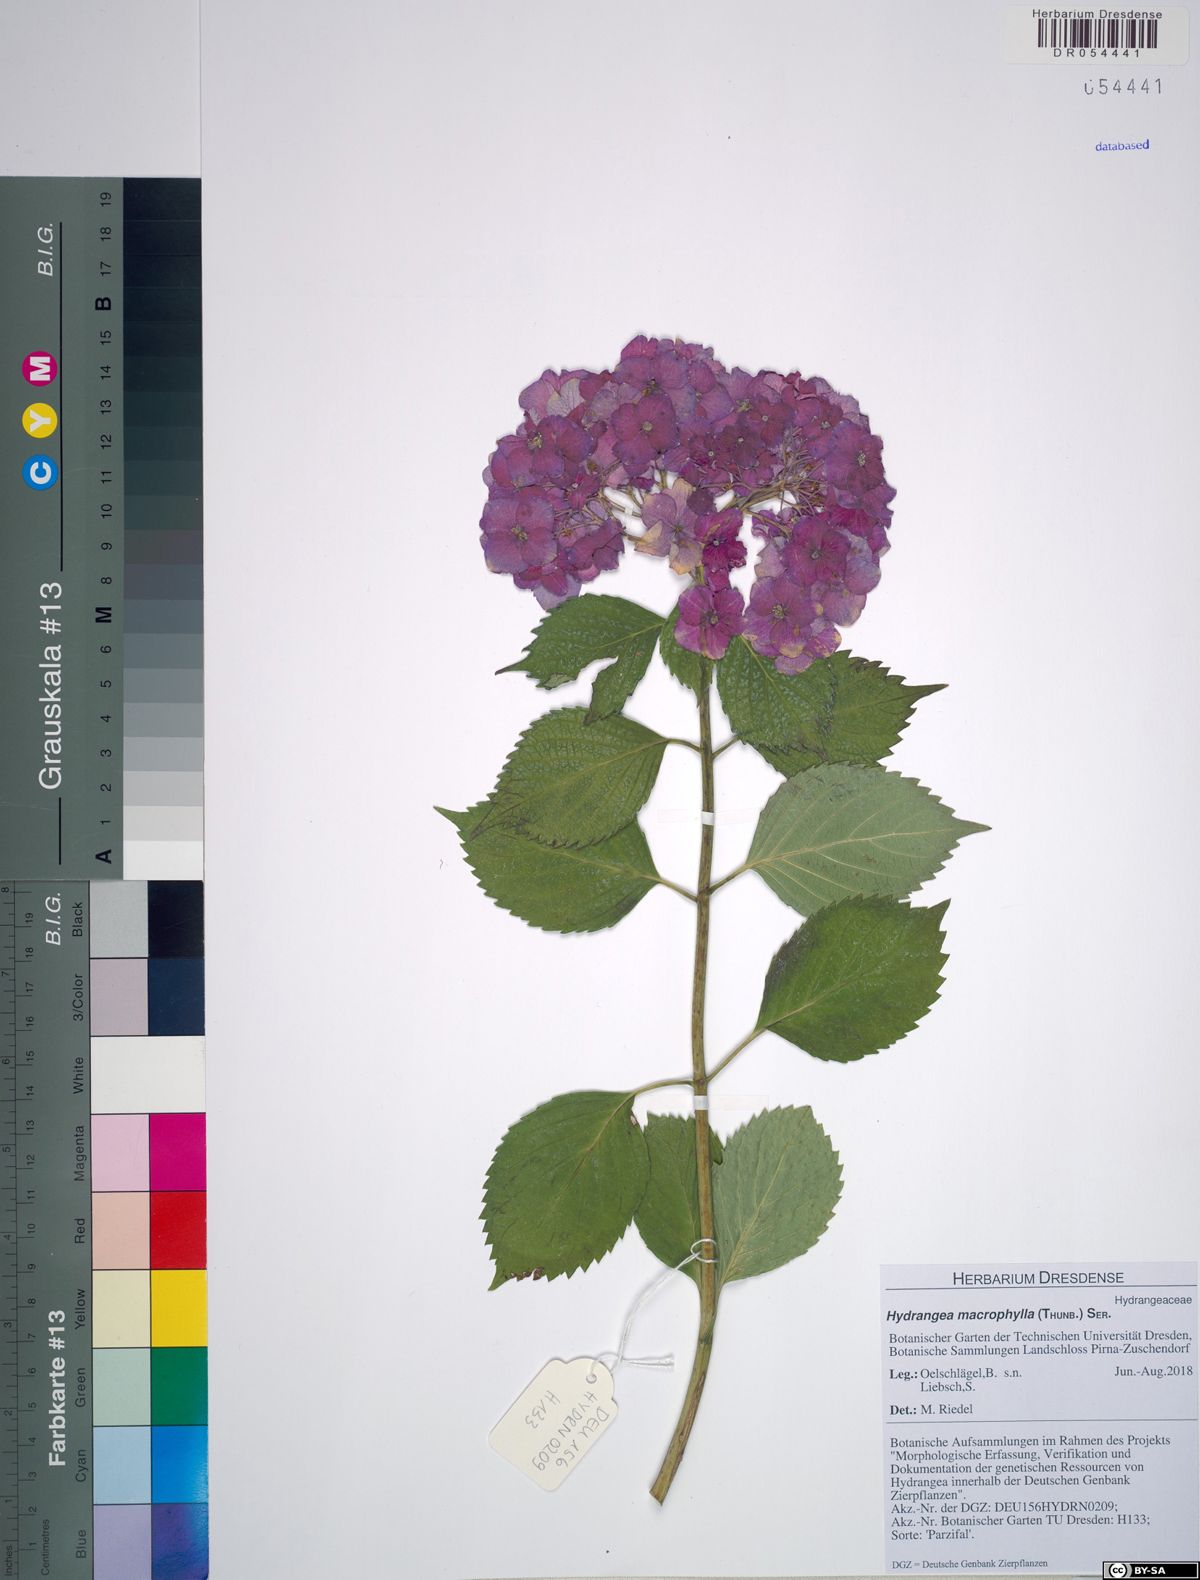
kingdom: Plantae
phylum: Tracheophyta
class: Magnoliopsida
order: Cornales
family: Hydrangeaceae
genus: Hydrangea
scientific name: Hydrangea macrophylla
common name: Hydrangea
